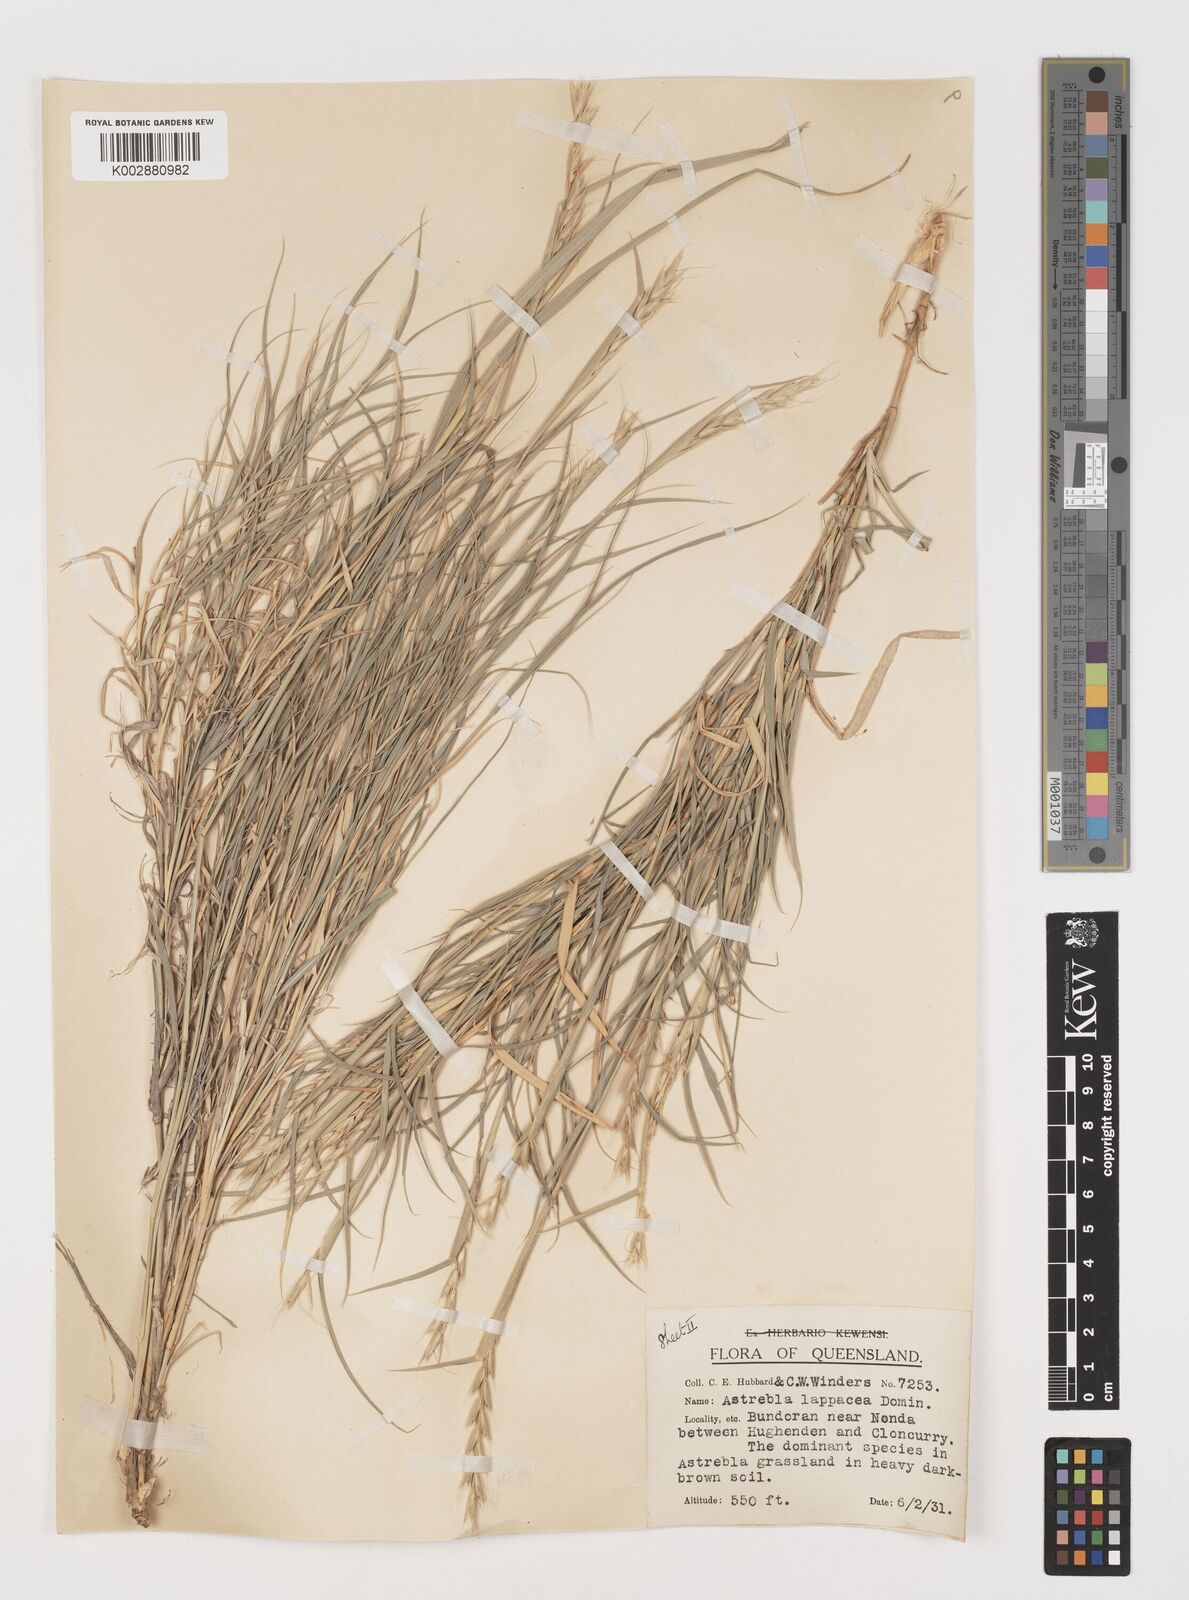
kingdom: Plantae
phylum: Tracheophyta
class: Liliopsida
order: Poales
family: Poaceae
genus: Astrebla
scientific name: Astrebla lappacea
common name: Curly mitchell grass
